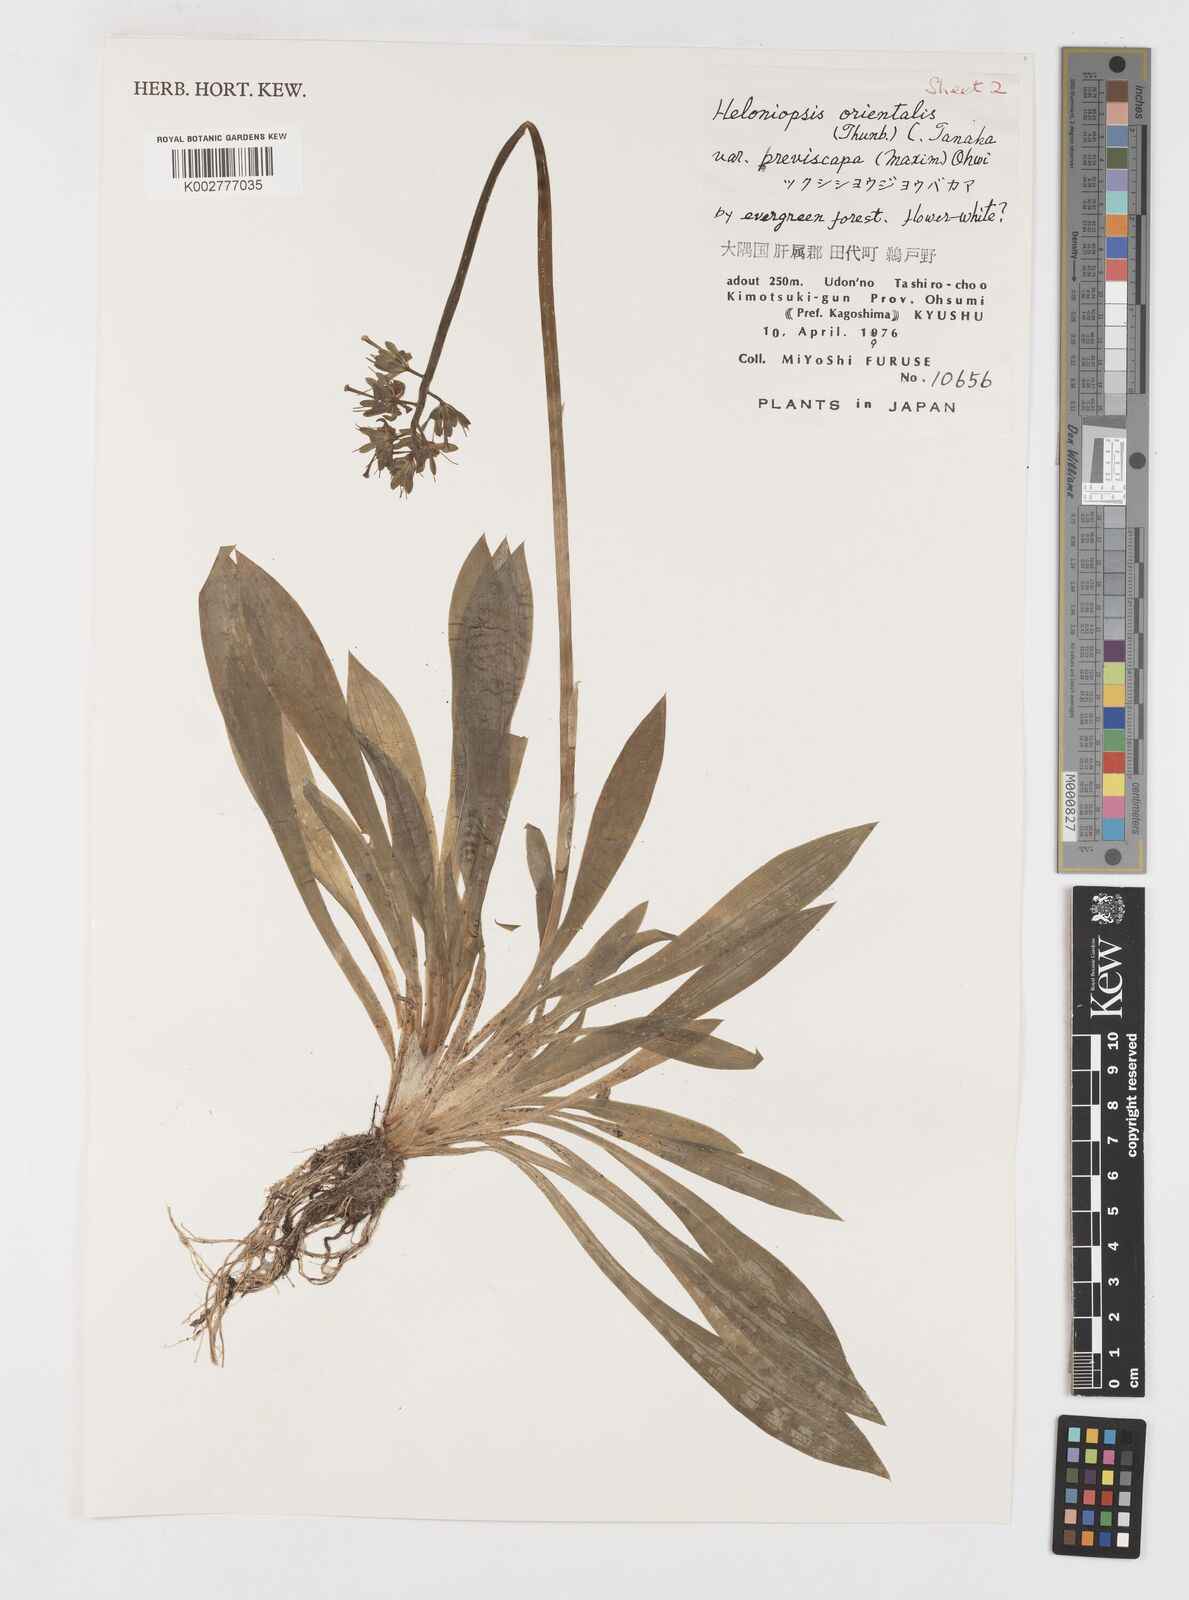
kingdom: Plantae
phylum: Tracheophyta
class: Liliopsida
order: Liliales
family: Melanthiaceae
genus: Helonias
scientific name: Helonias orientalis
